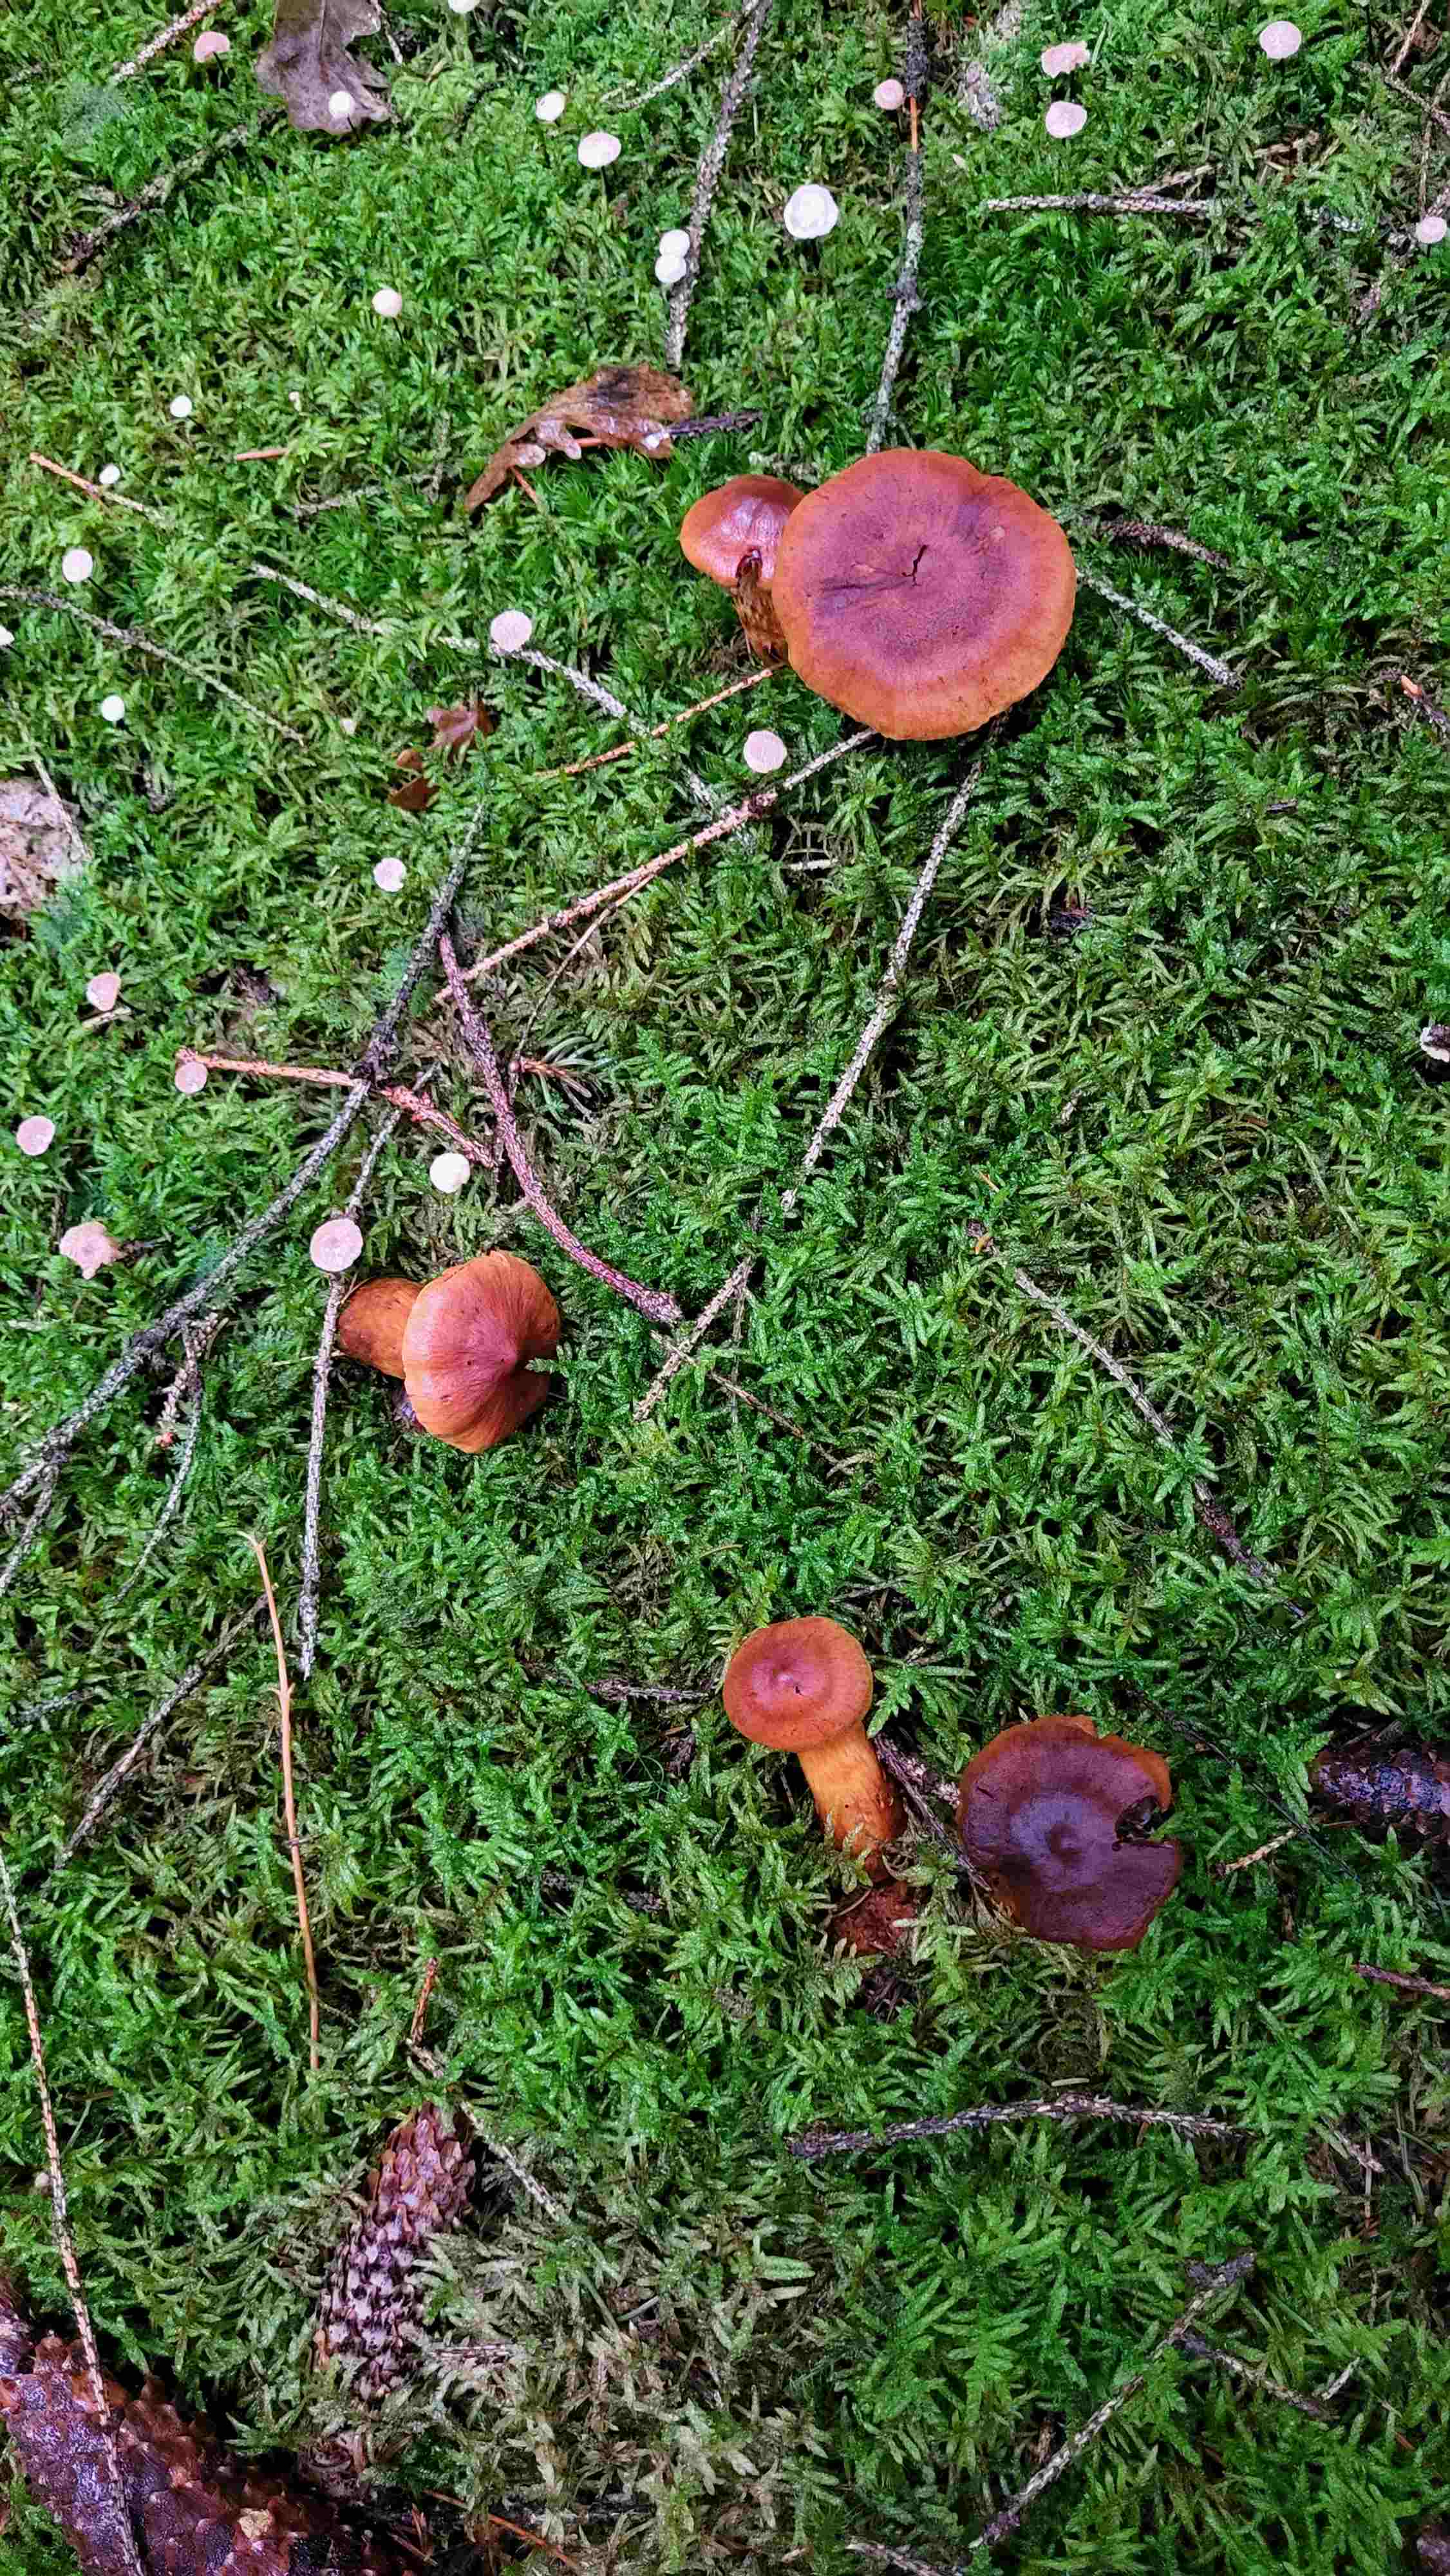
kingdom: Fungi
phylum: Basidiomycota
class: Agaricomycetes
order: Agaricales
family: Cortinariaceae
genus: Cortinarius
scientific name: Cortinarius
